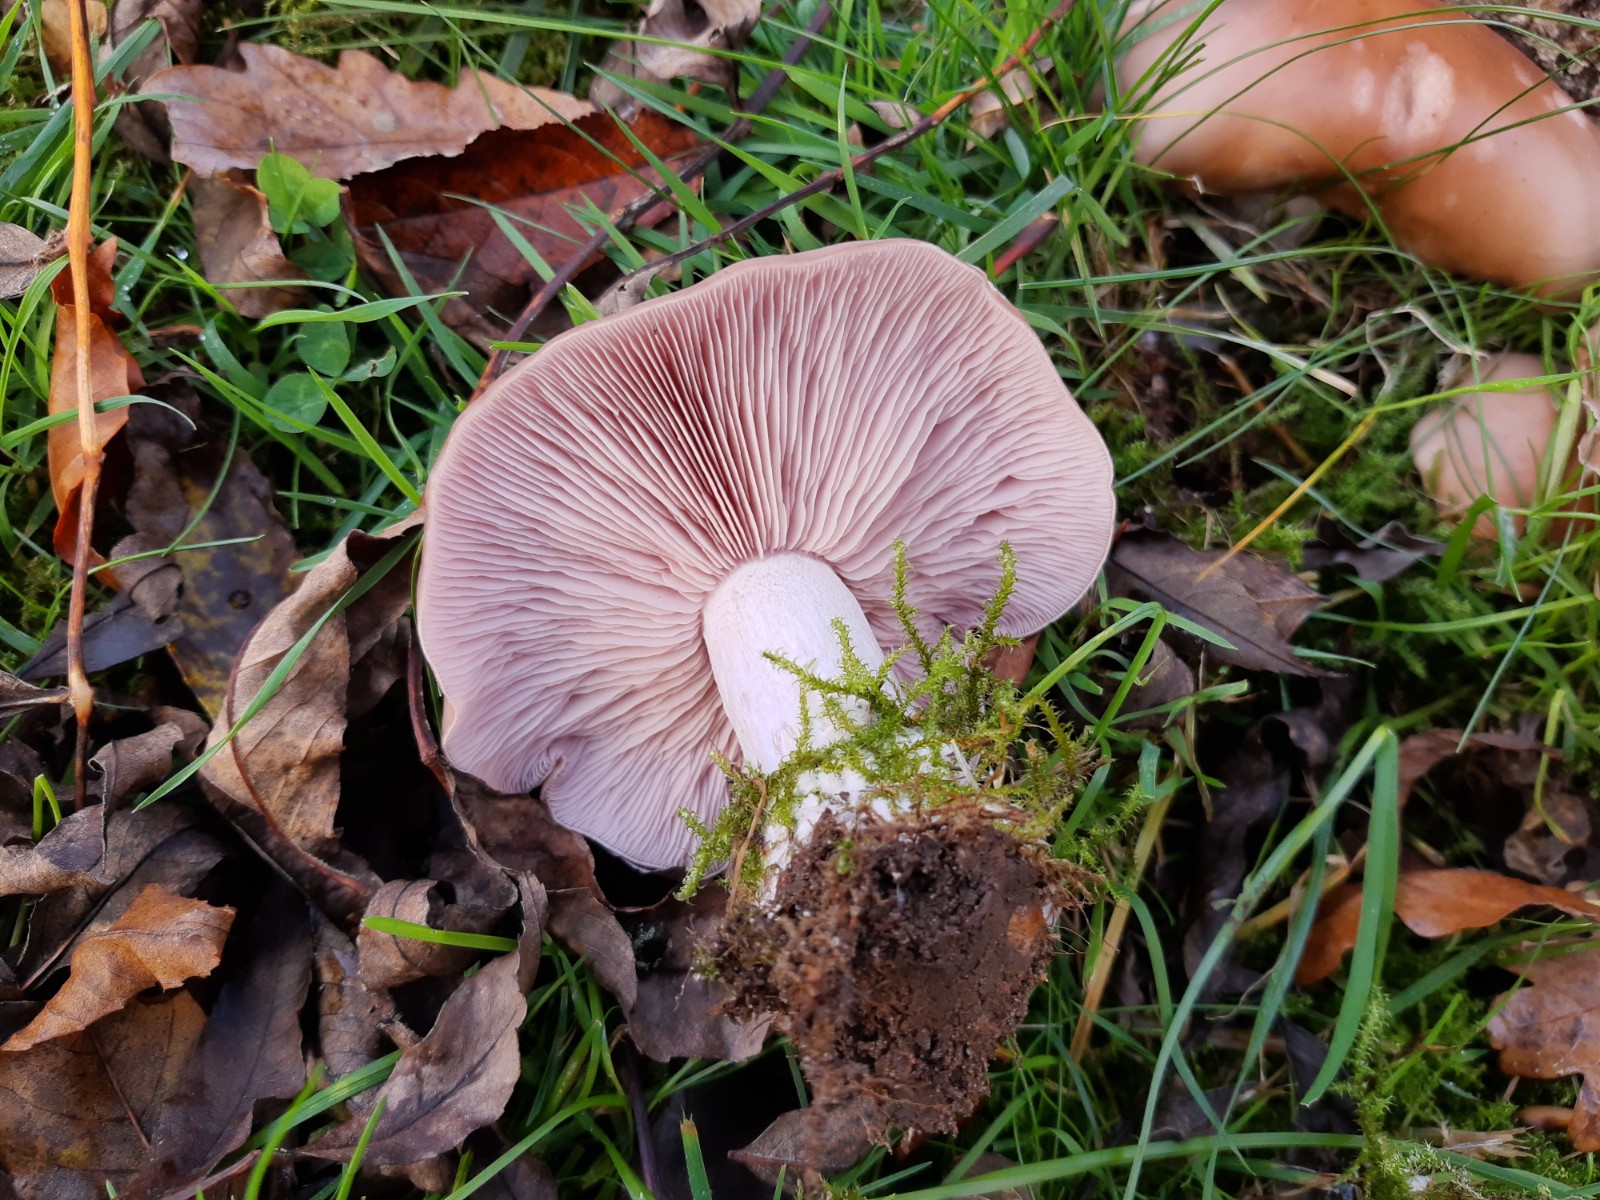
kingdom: Fungi
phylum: Basidiomycota
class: Agaricomycetes
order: Agaricales
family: Tricholomataceae
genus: Lepista
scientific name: Lepista nuda
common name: violet hekseringshat
